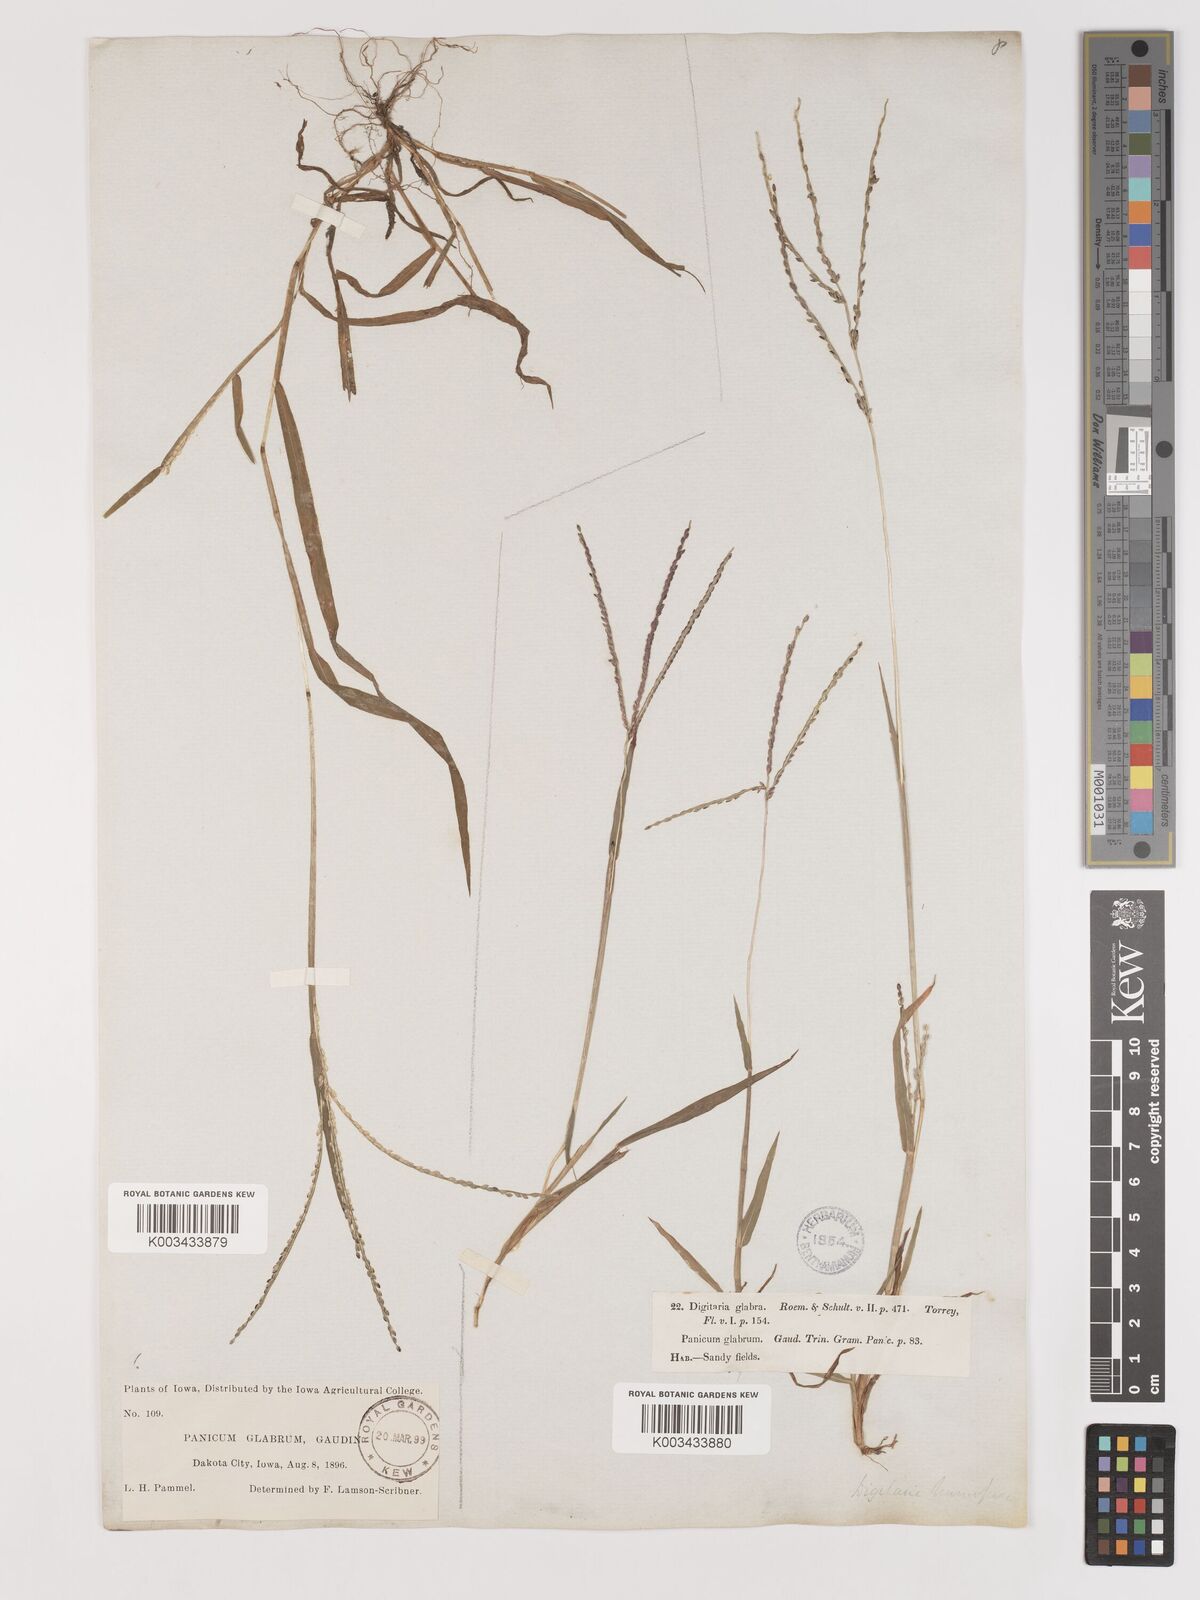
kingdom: Plantae
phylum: Tracheophyta
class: Liliopsida
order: Poales
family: Poaceae
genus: Digitaria
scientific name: Digitaria ischaemum
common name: Smooth crabgrass
